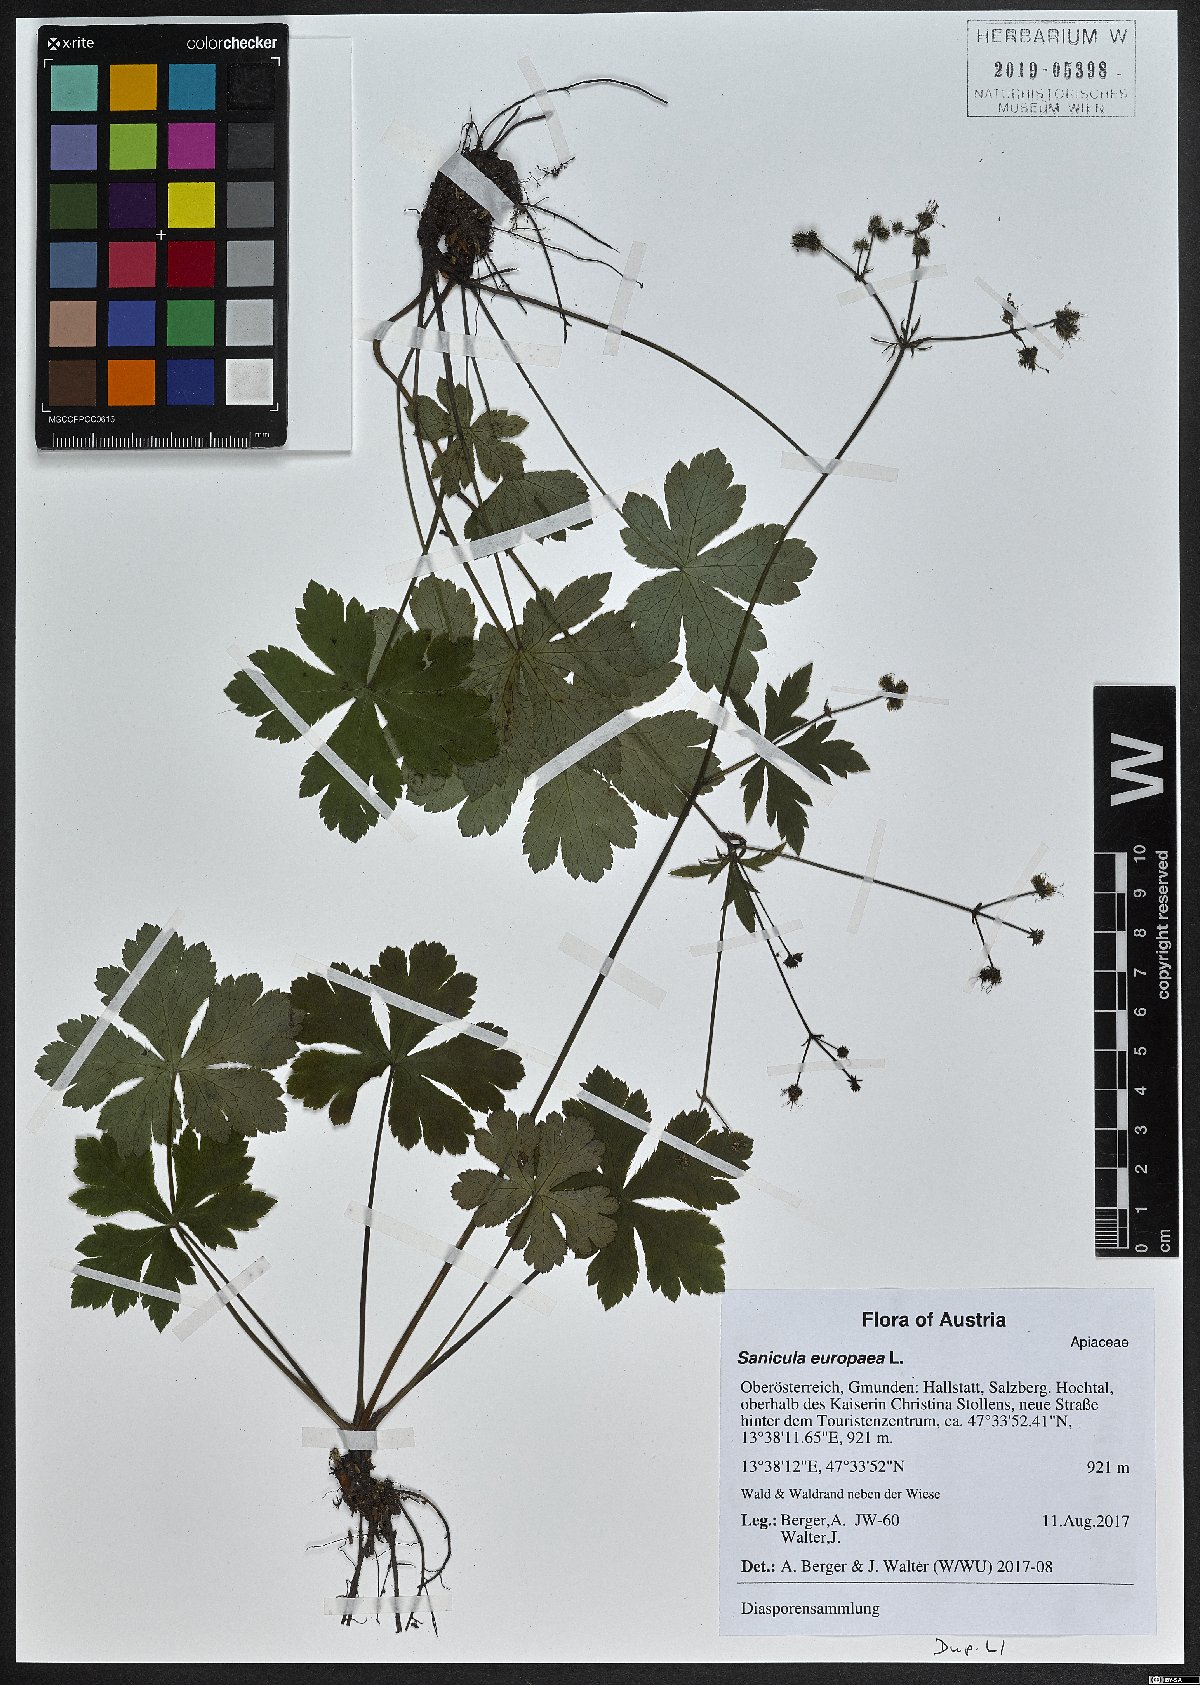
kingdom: Plantae
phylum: Tracheophyta
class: Magnoliopsida
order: Apiales
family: Apiaceae
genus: Sanicula
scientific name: Sanicula europaea
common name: Sanicle
